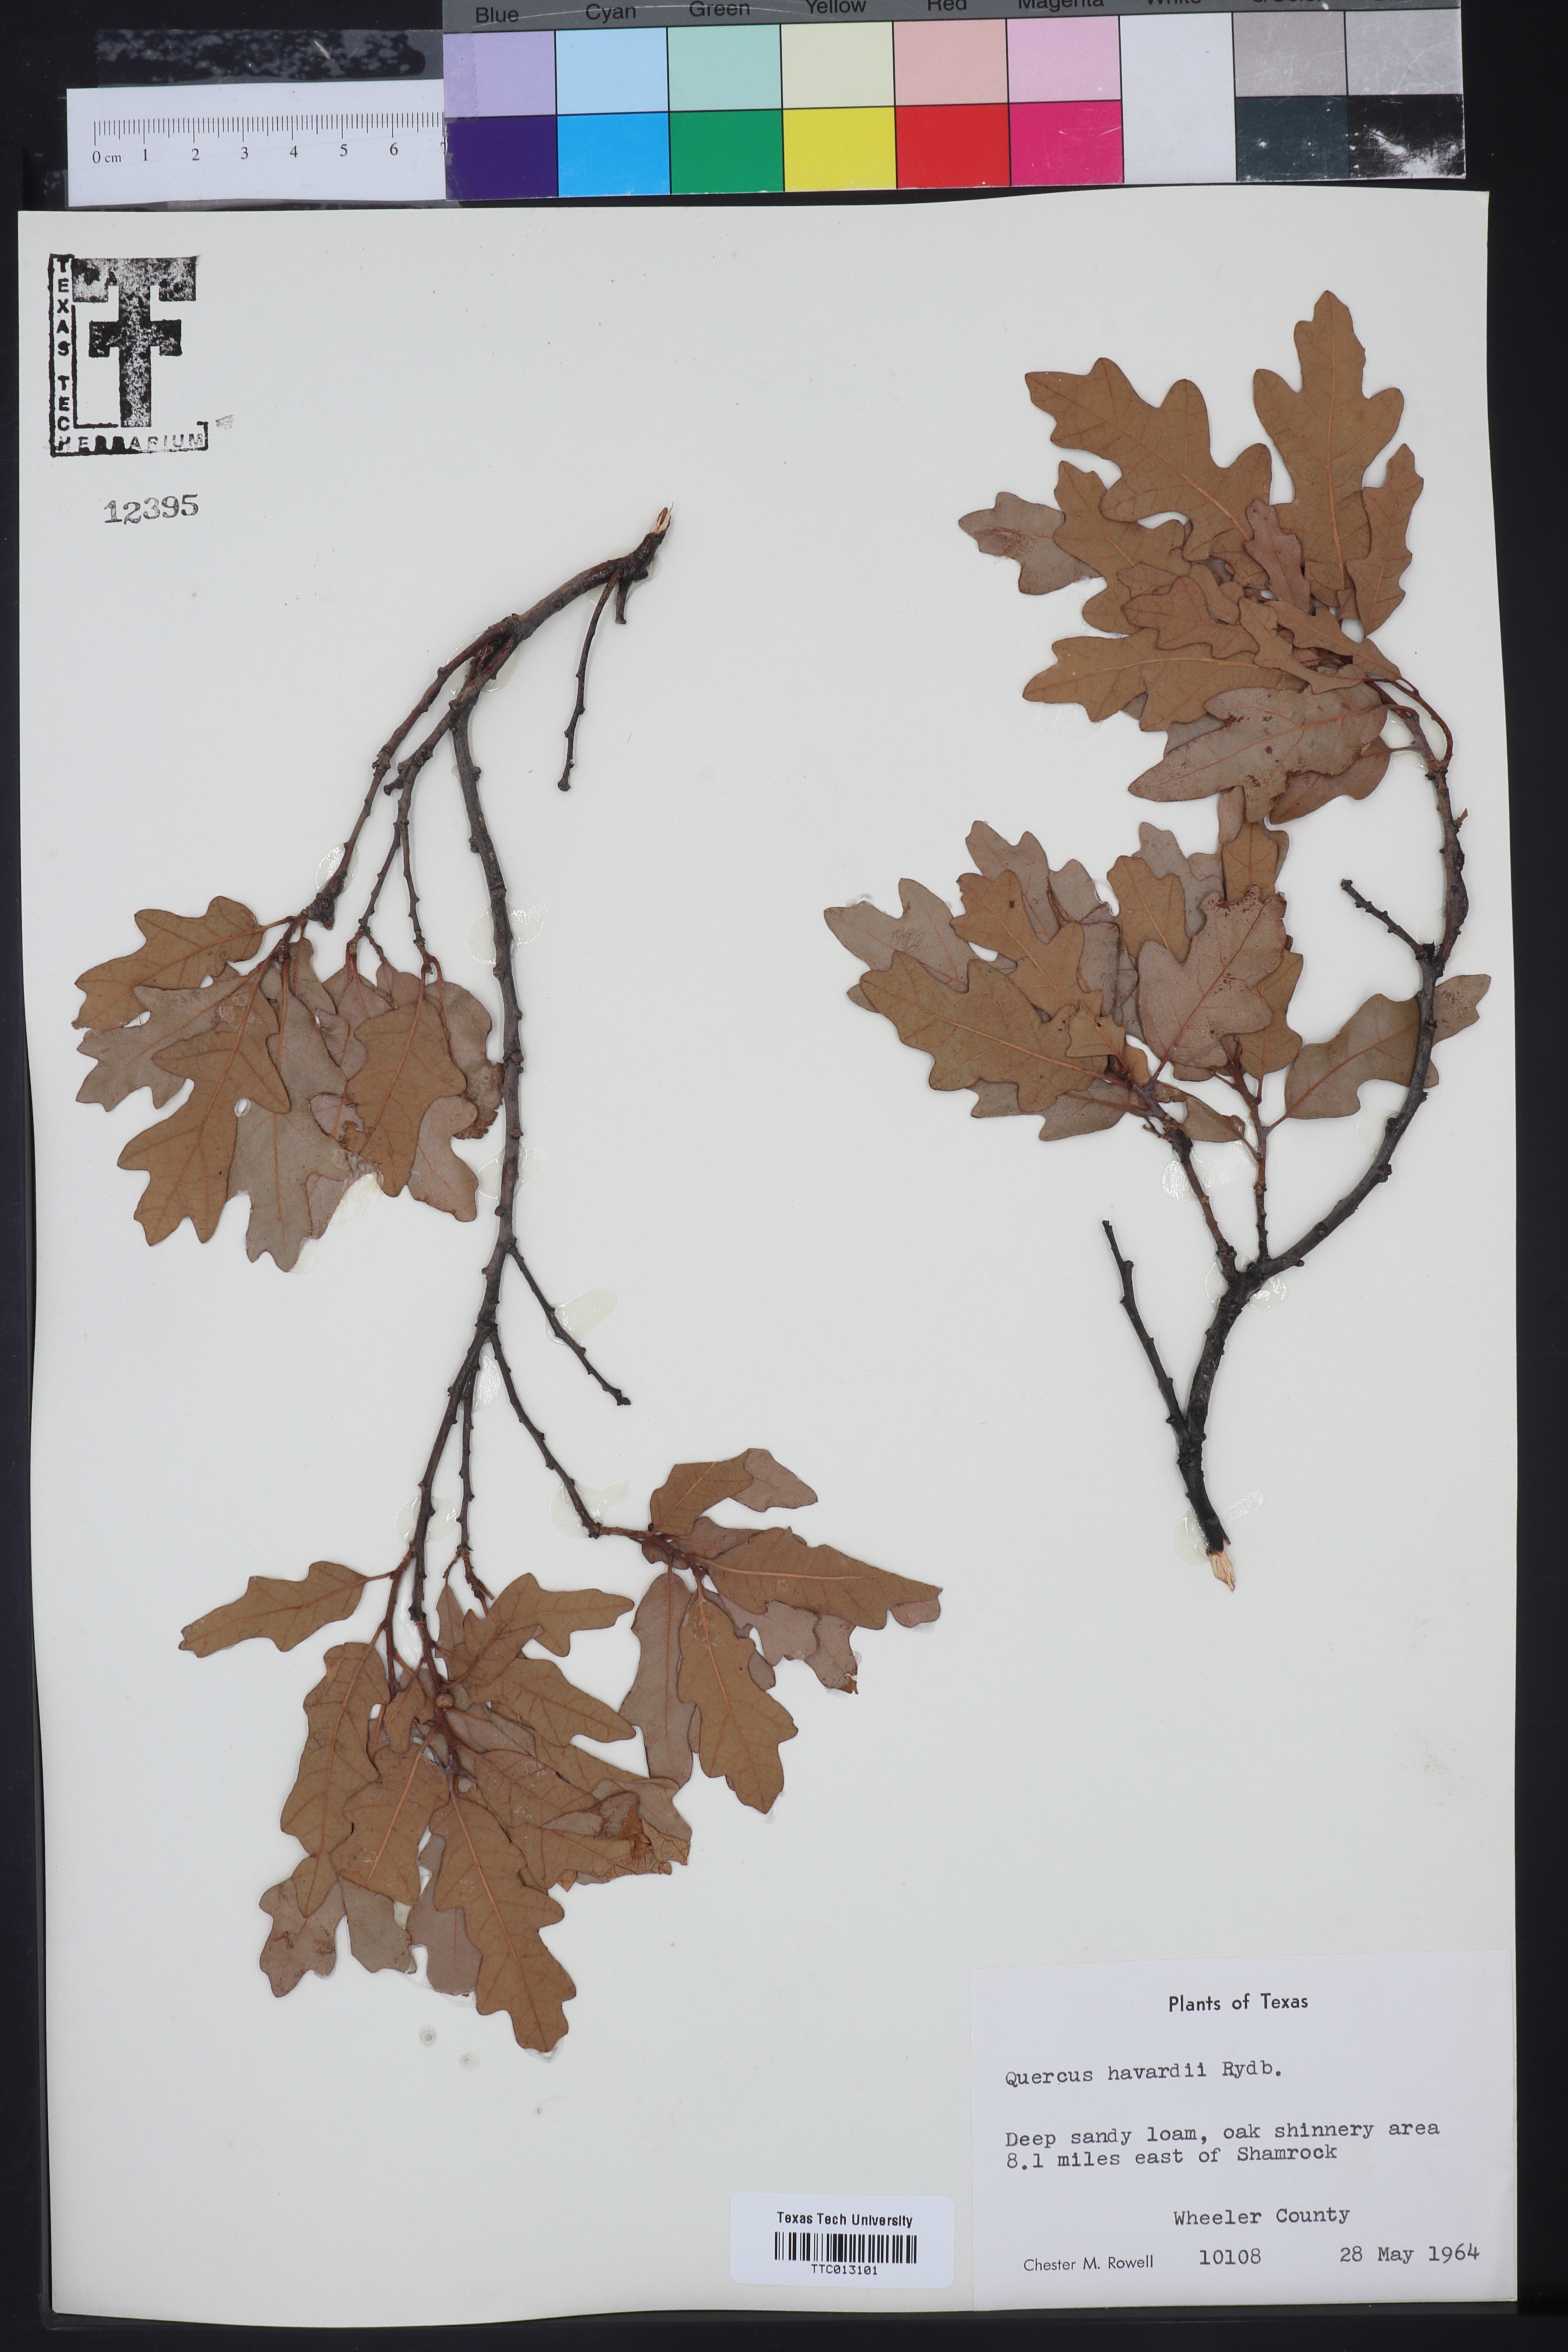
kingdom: Plantae
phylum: Tracheophyta
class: Magnoliopsida
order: Fagales
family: Fagaceae
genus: Quercus
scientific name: Quercus havardii
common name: Shinnery oak
